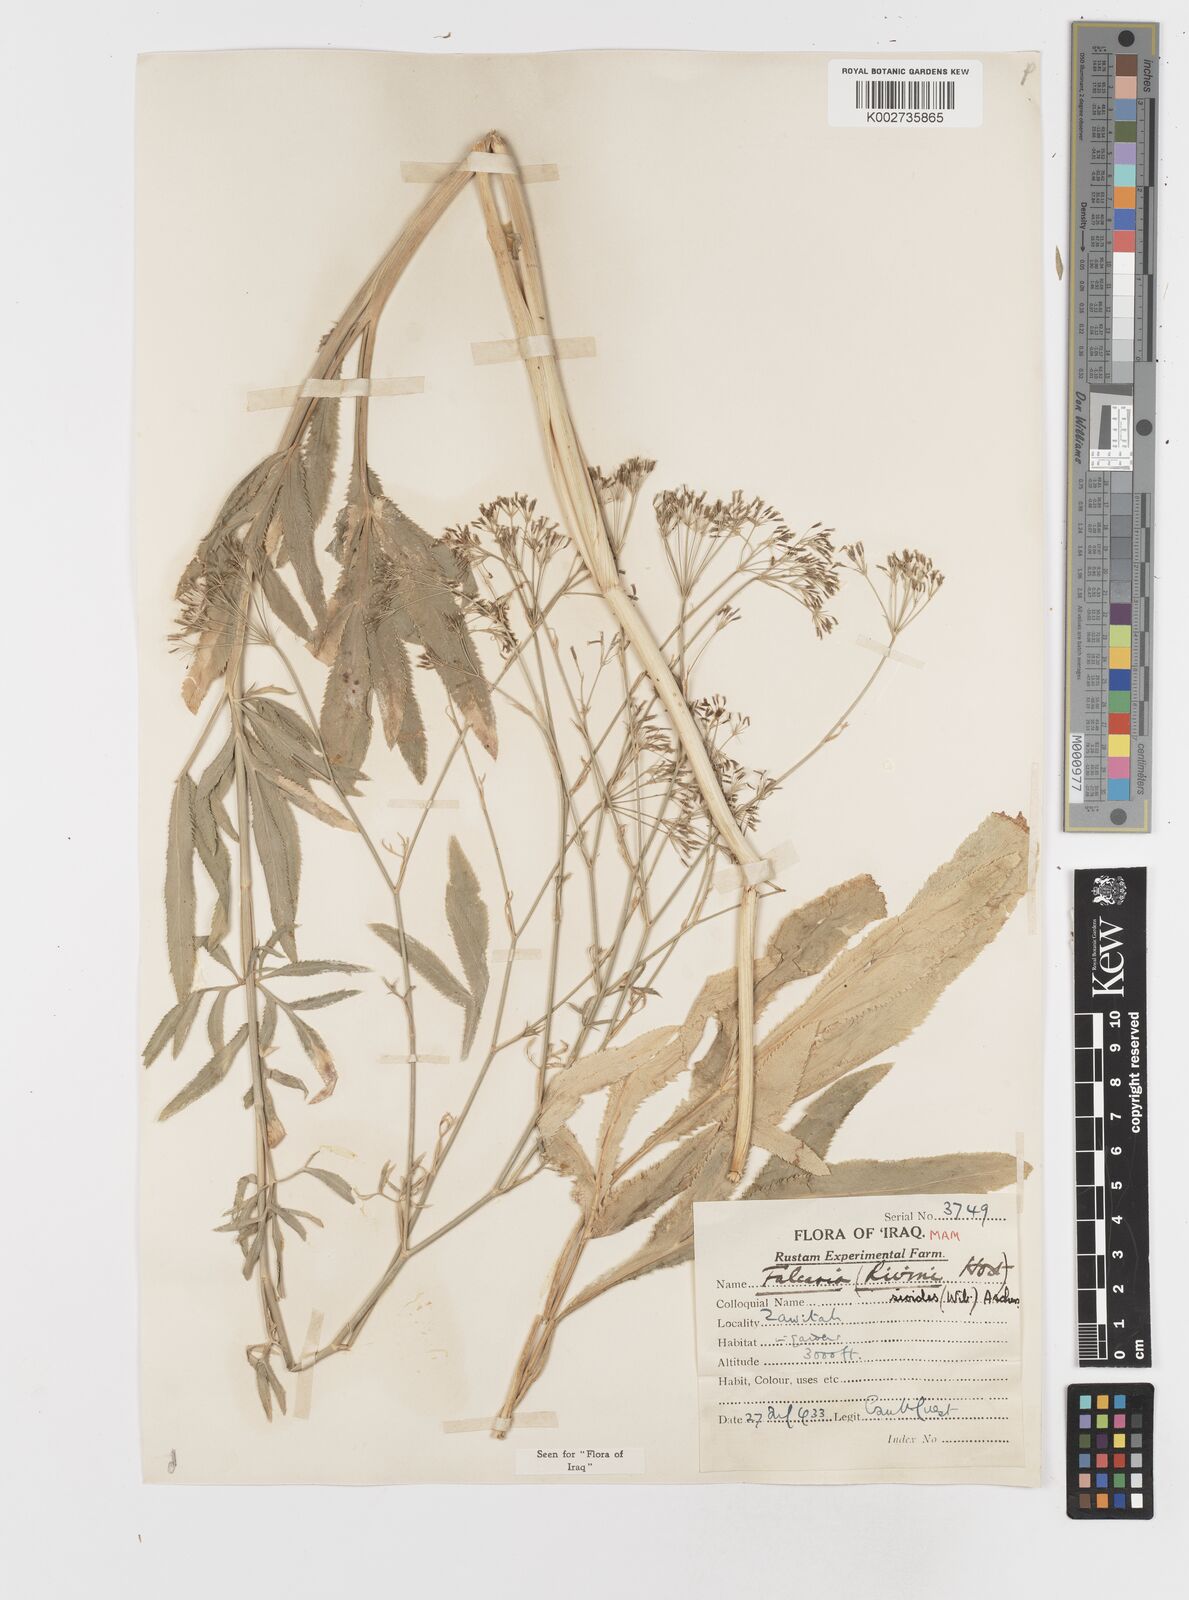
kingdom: Plantae
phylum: Tracheophyta
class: Magnoliopsida
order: Apiales
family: Apiaceae
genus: Falcaria
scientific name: Falcaria vulgaris
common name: Longleaf
